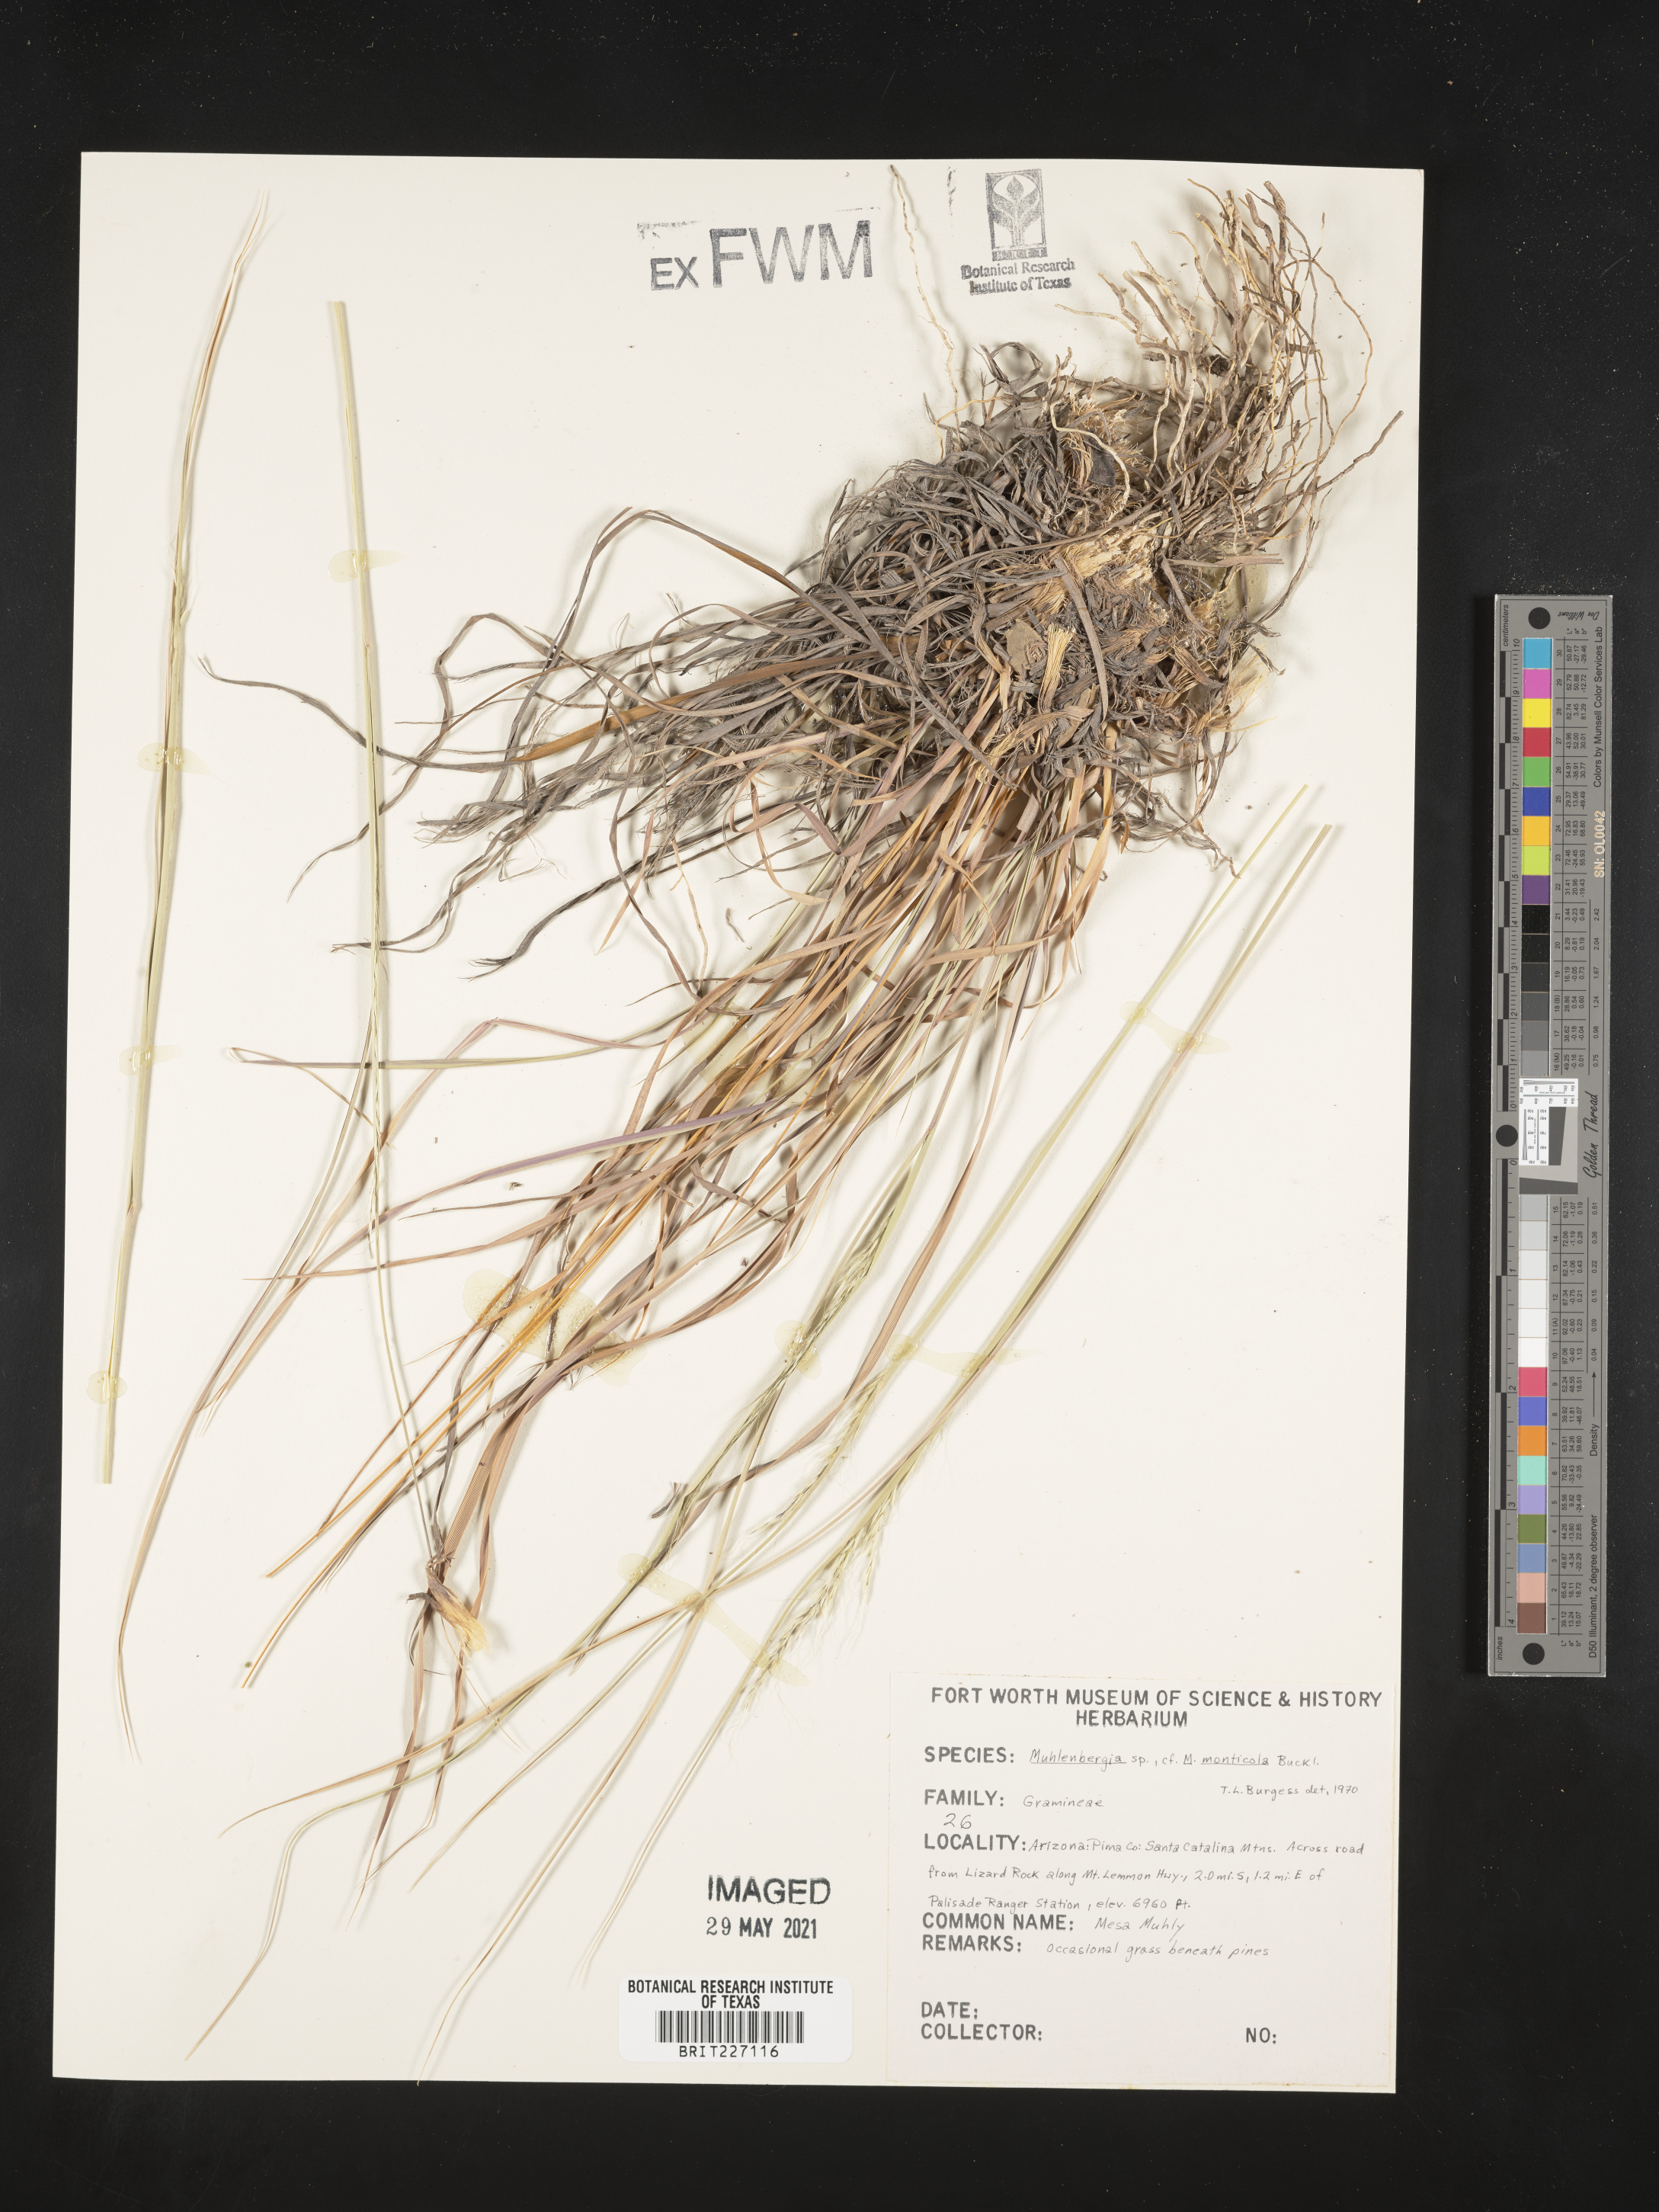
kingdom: Plantae
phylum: Tracheophyta
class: Liliopsida
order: Poales
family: Poaceae
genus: Muhlenbergia
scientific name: Muhlenbergia tenuifolia
